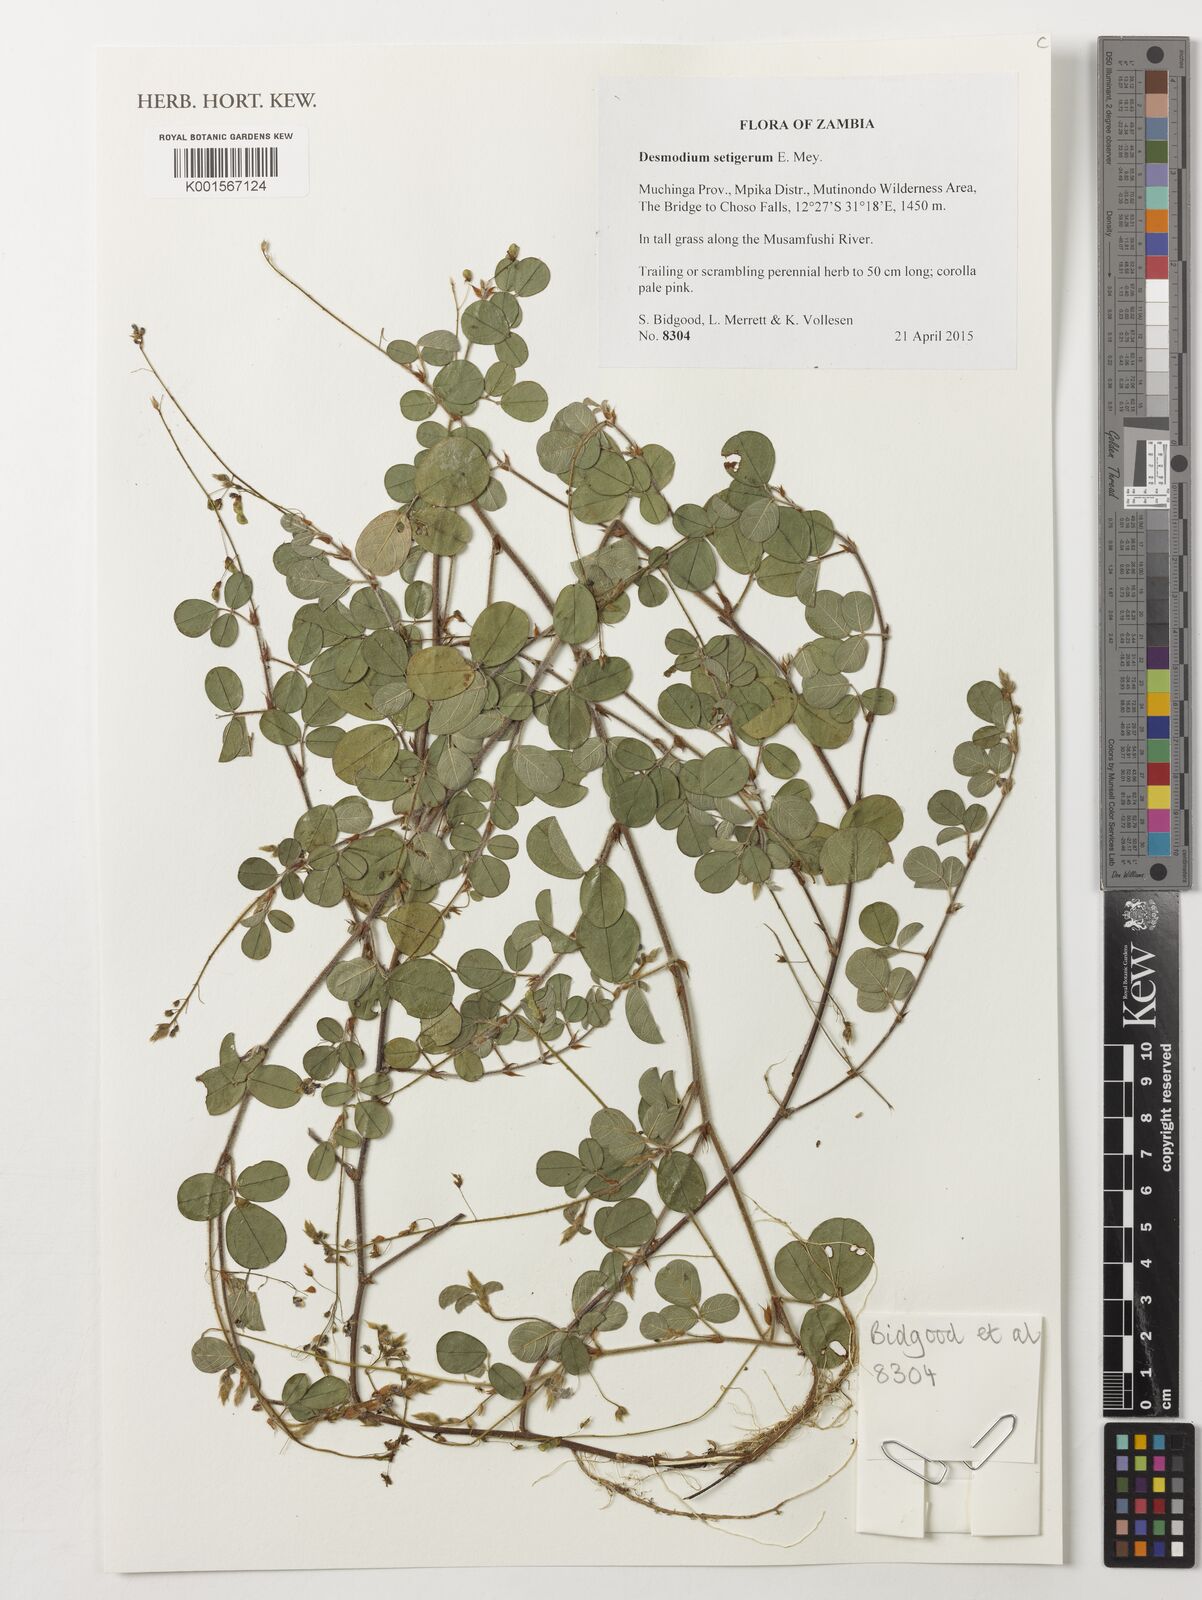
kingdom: Plantae
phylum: Tracheophyta
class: Magnoliopsida
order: Fabales
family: Fabaceae
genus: Grona
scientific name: Grona setigera
